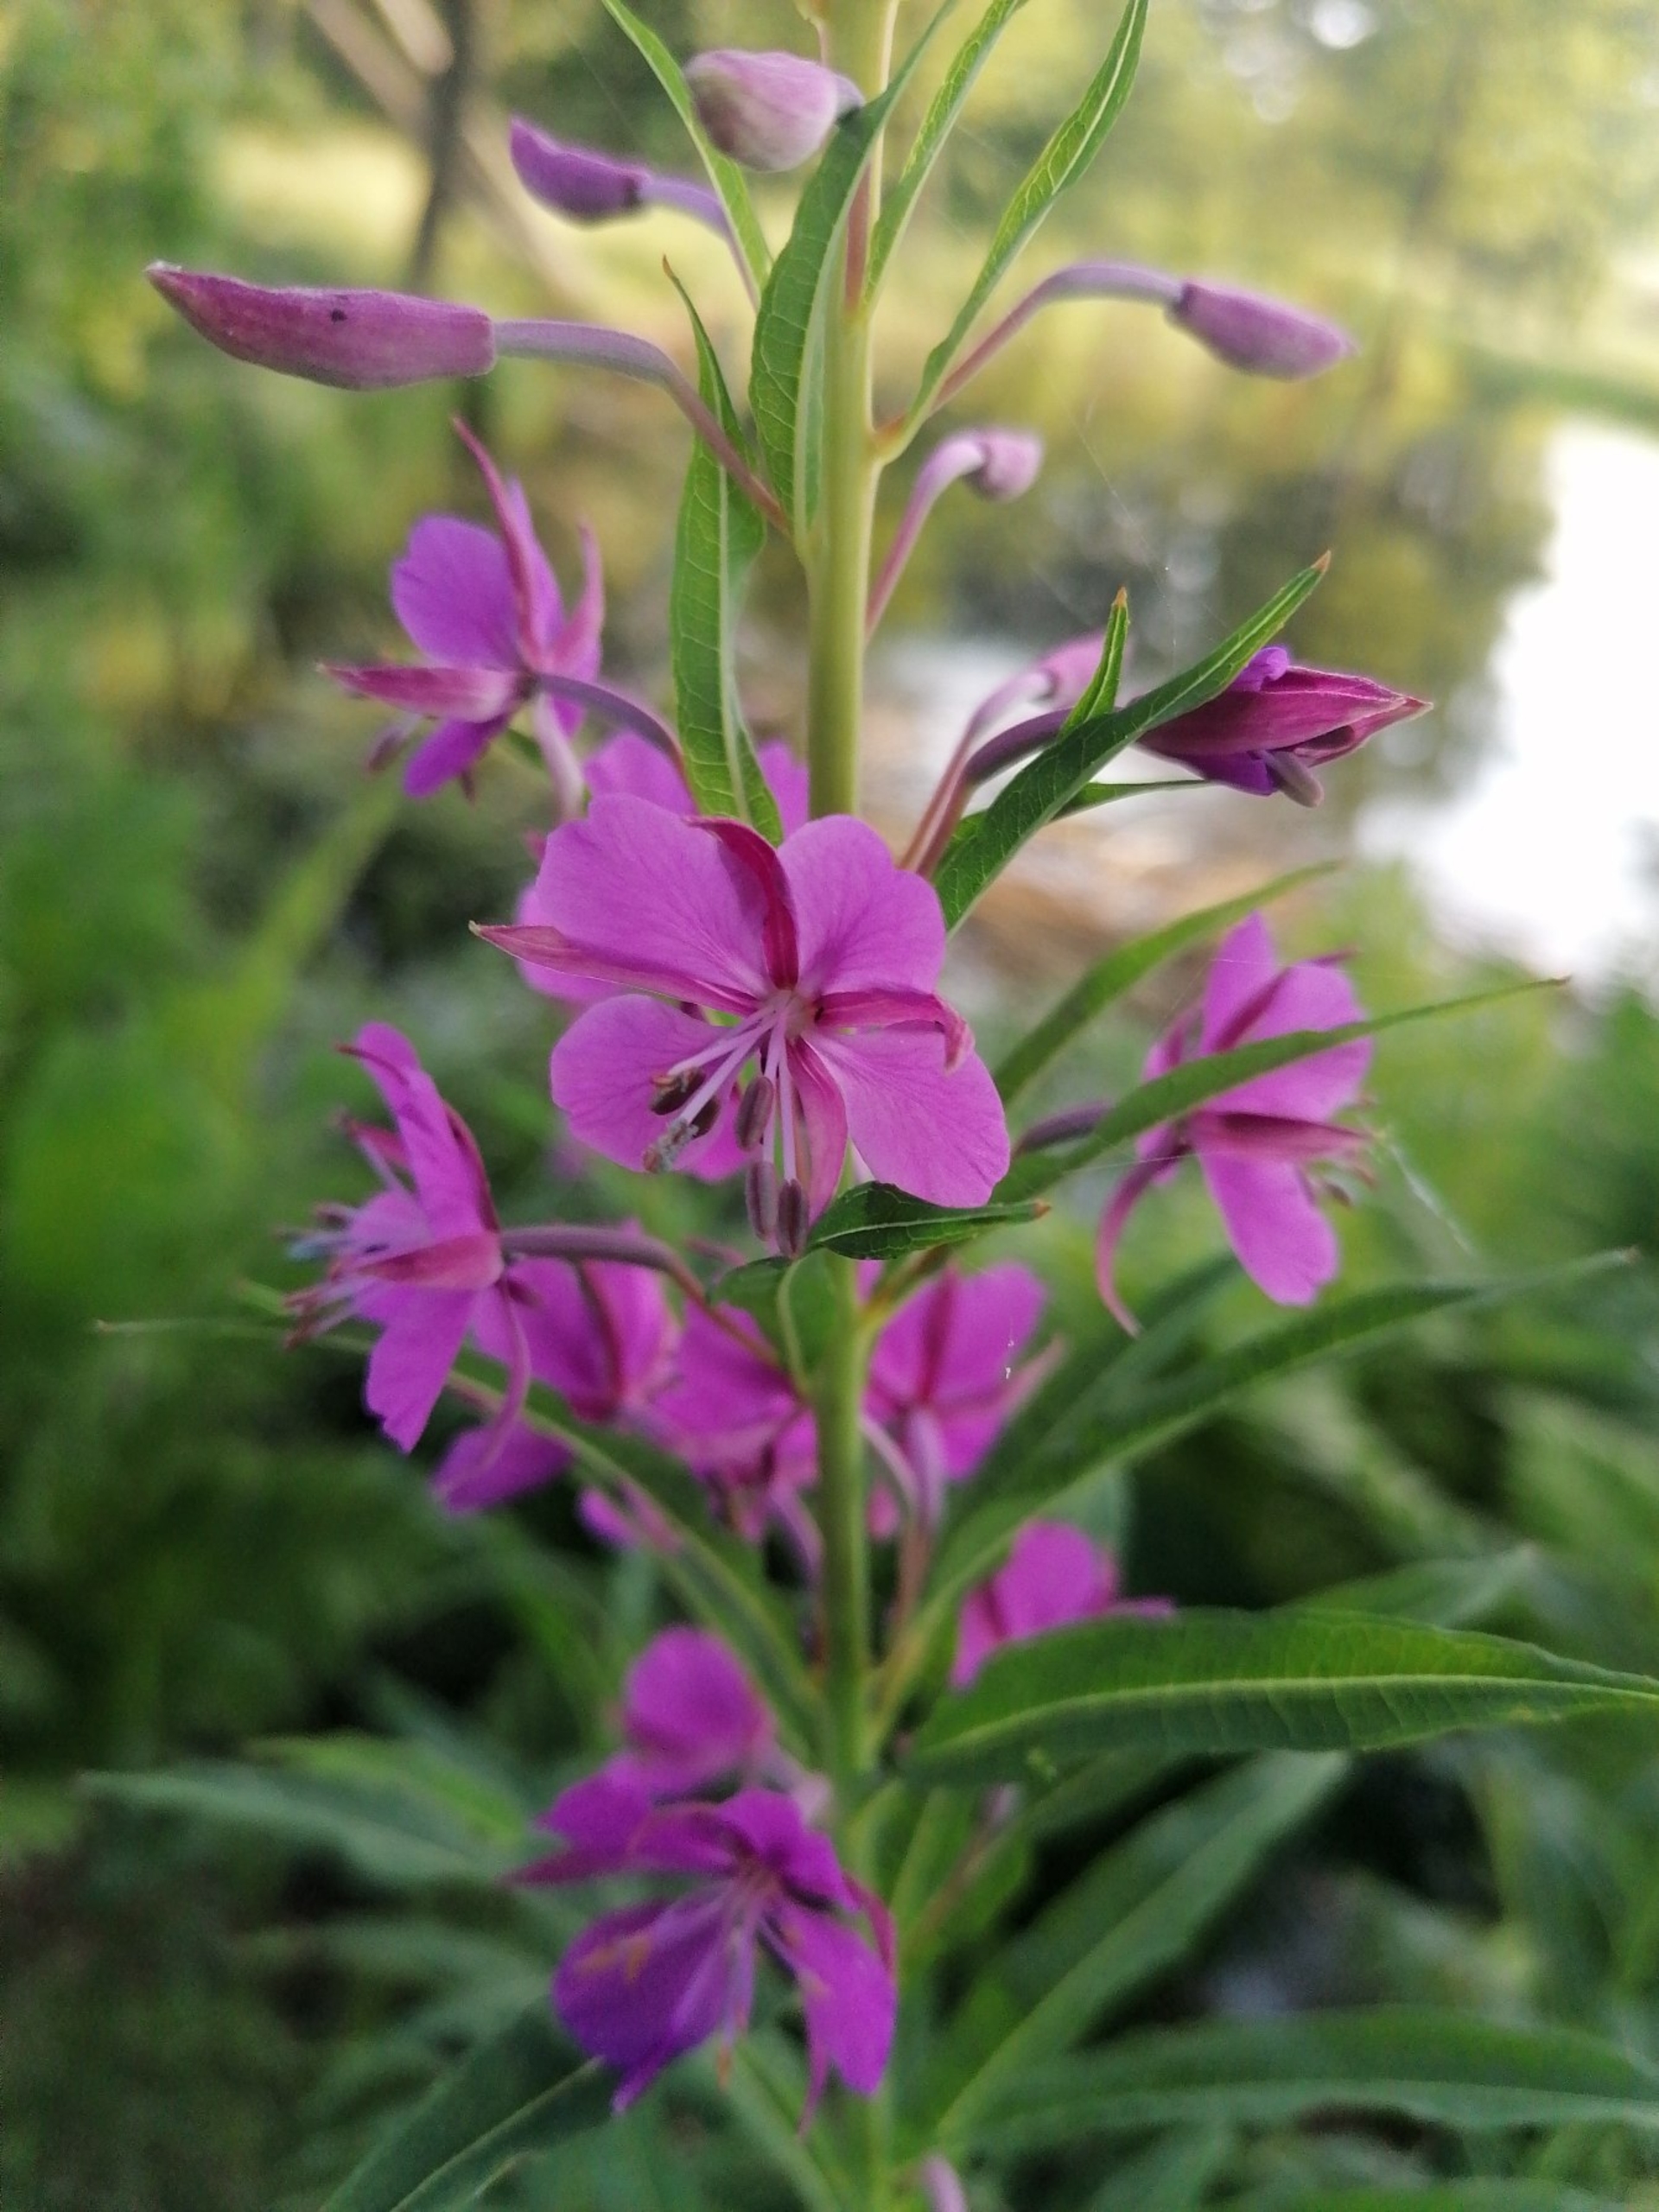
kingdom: Plantae
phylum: Tracheophyta
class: Magnoliopsida
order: Myrtales
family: Onagraceae
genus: Chamaenerion
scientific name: Chamaenerion angustifolium
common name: Gederams
